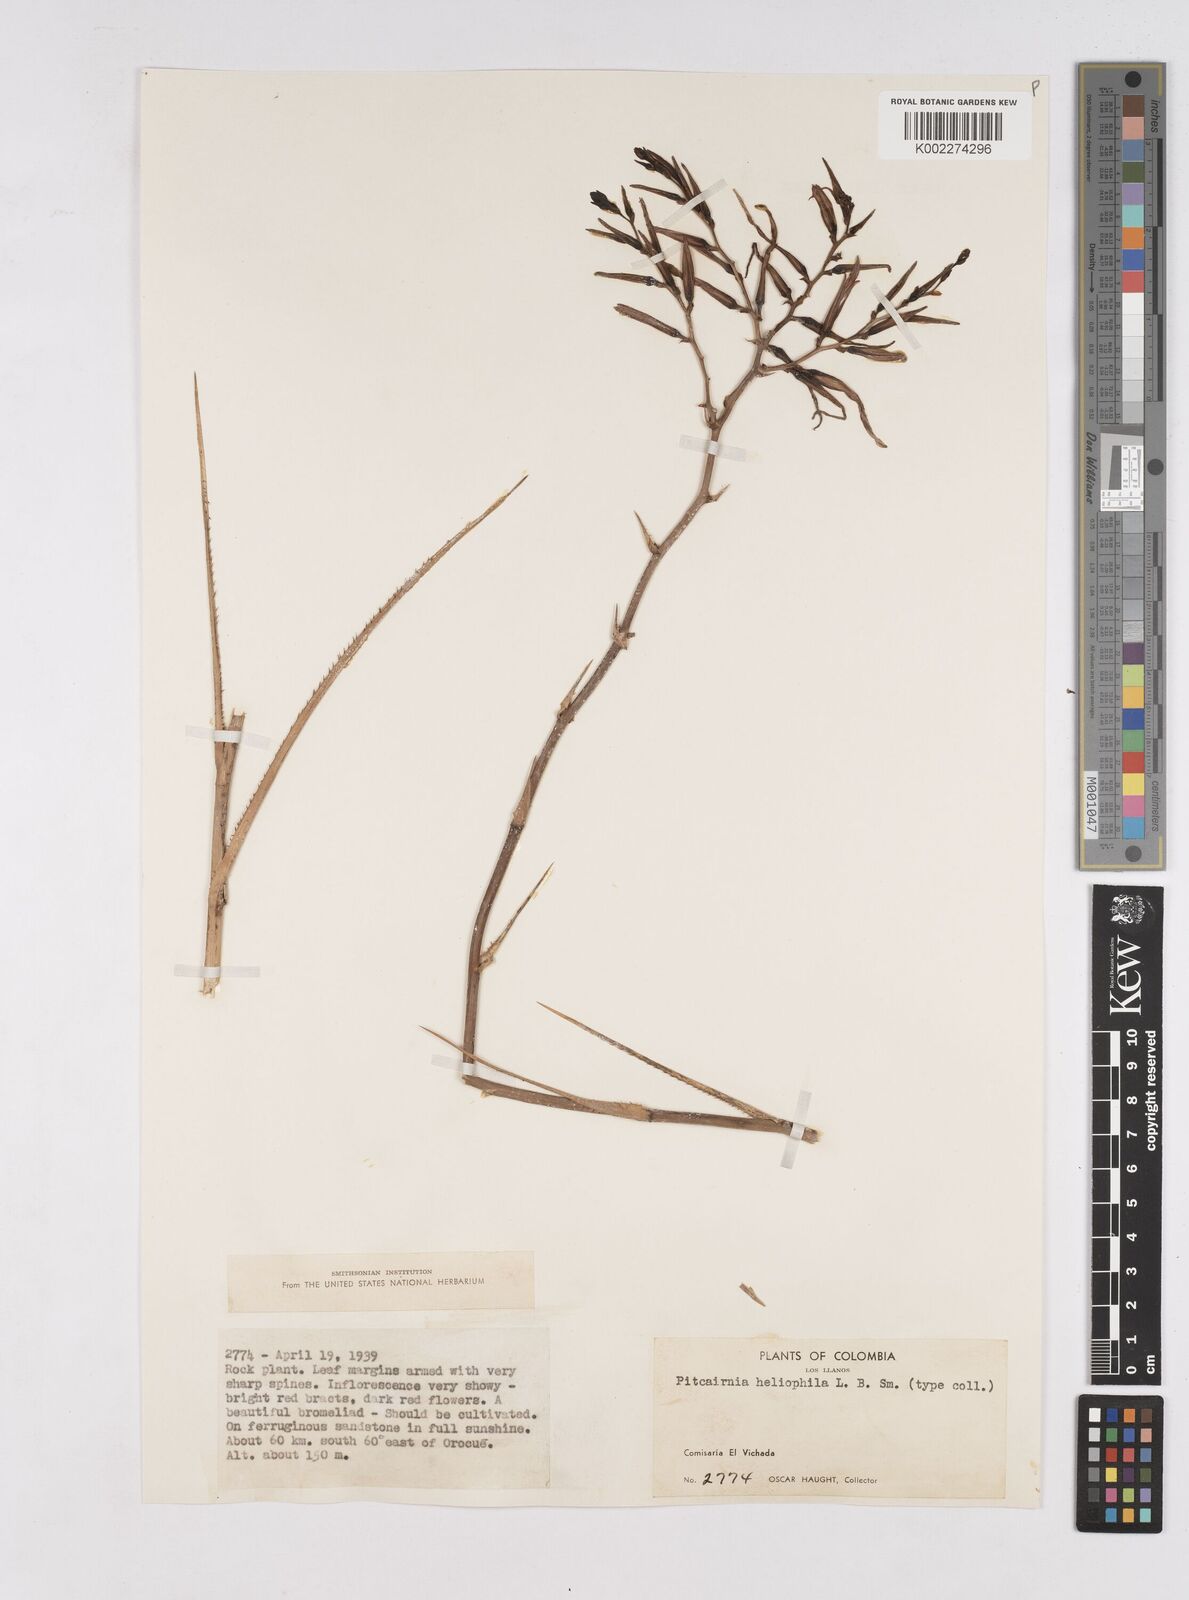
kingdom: Plantae
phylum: Tracheophyta
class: Liliopsida
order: Poales
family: Bromeliaceae
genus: Pitcairnia
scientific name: Pitcairnia heliophila
